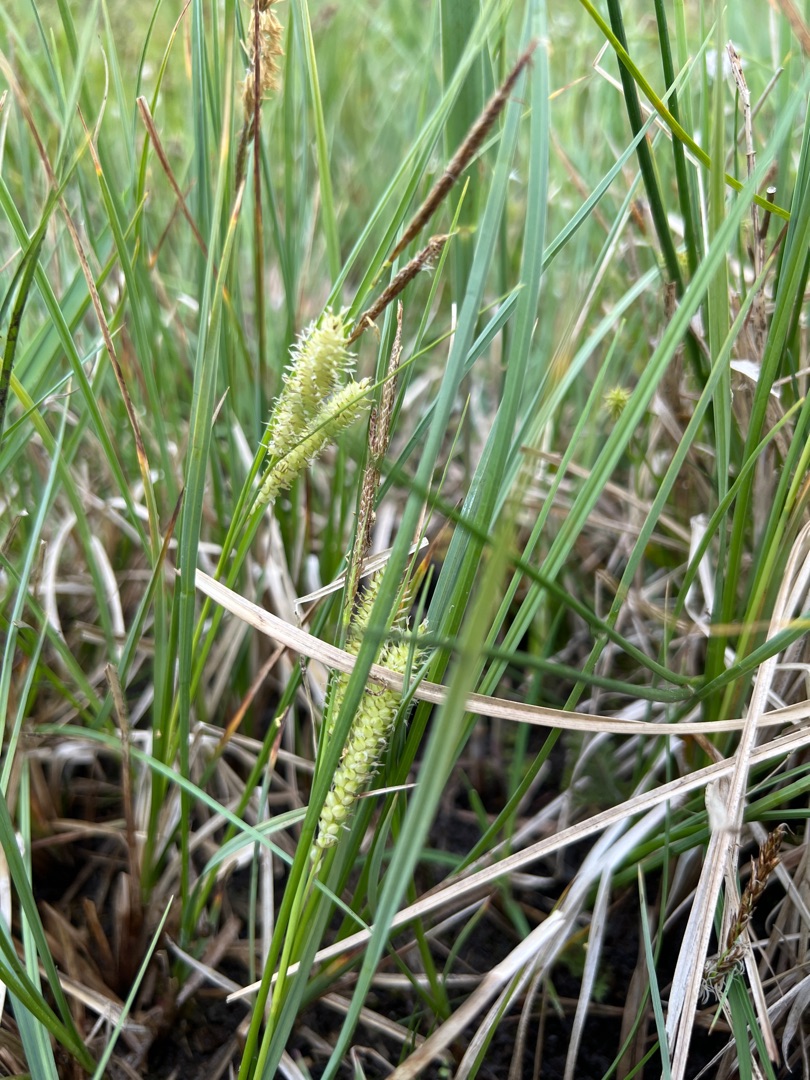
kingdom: Plantae
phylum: Tracheophyta
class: Liliopsida
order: Poales
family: Cyperaceae
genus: Carex
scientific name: Carex rostrata
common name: Næb-star
